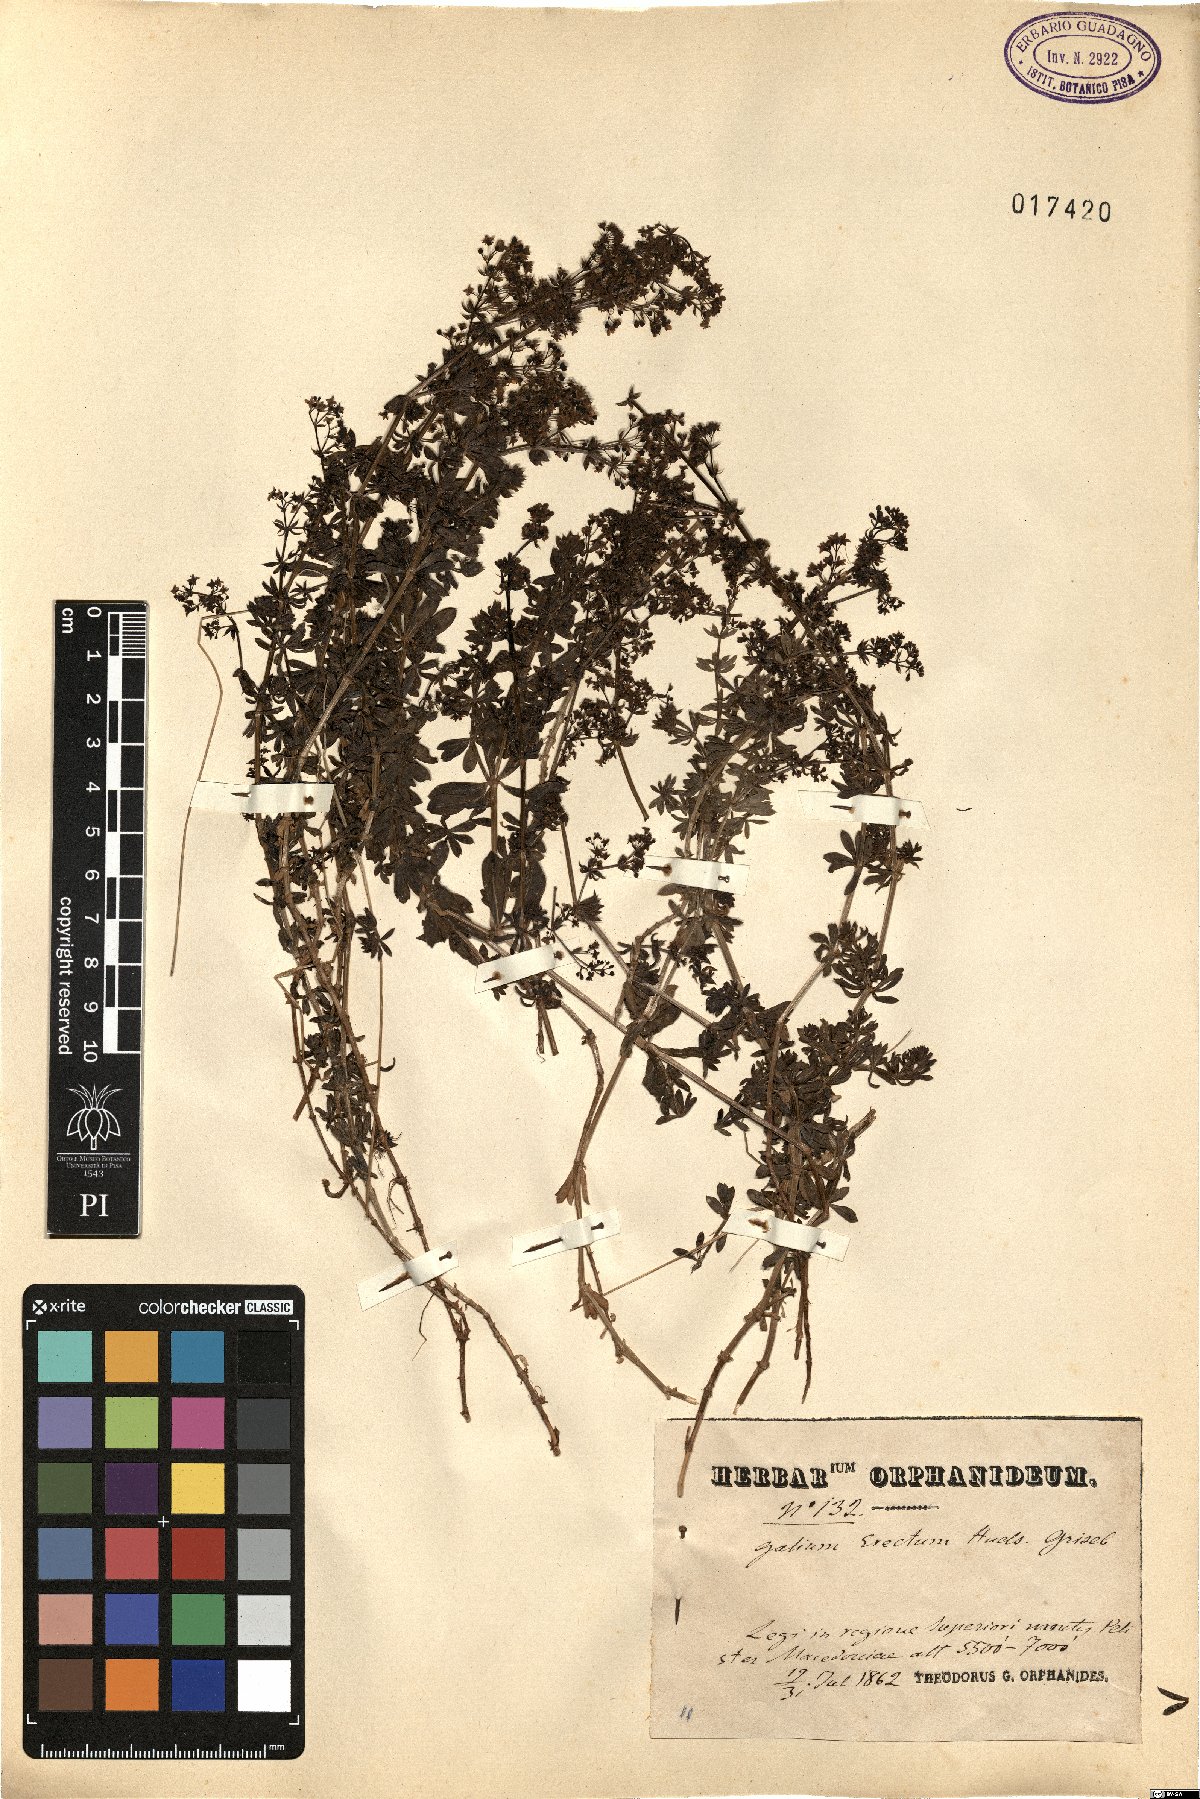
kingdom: Plantae
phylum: Tracheophyta
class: Magnoliopsida
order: Gentianales
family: Rubiaceae
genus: Galium
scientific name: Galium album
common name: White bedstraw
